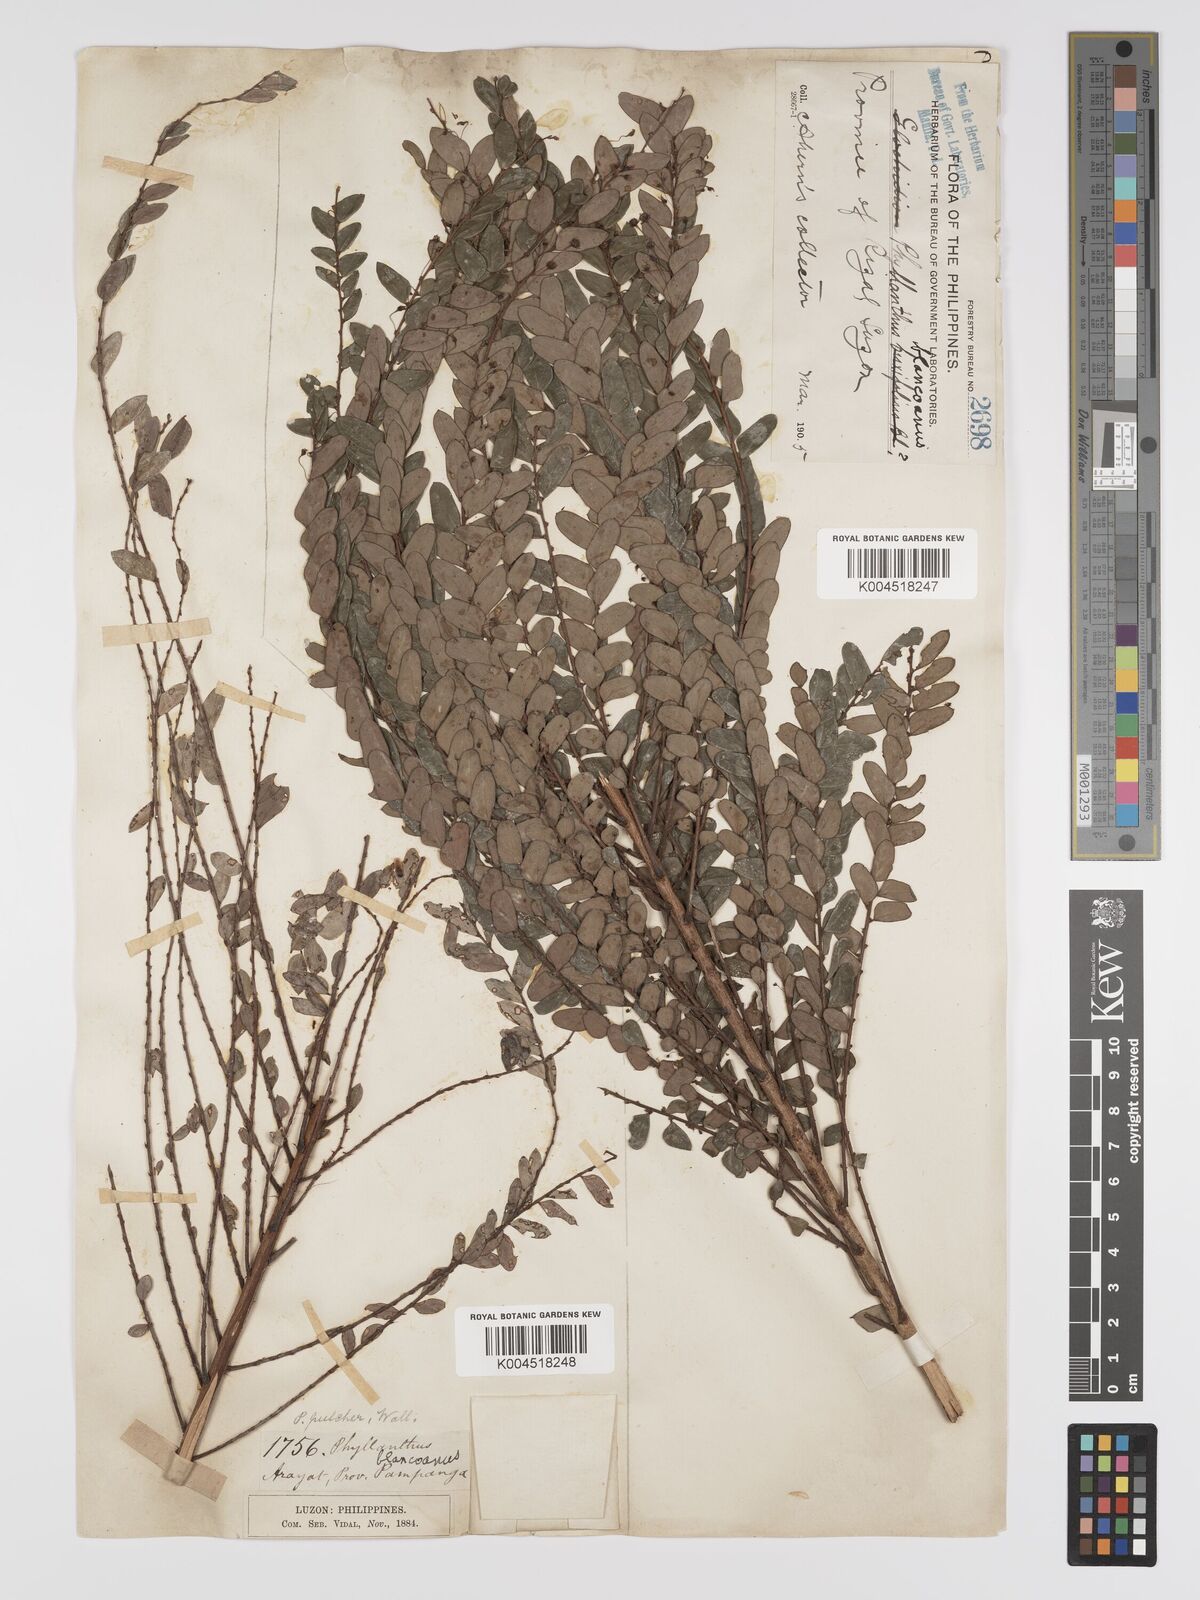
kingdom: Plantae
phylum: Tracheophyta
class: Magnoliopsida
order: Malpighiales
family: Phyllanthaceae
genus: Phyllanthus
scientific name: Phyllanthus blancoanus
